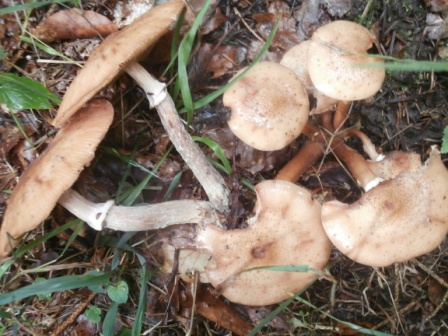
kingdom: Fungi
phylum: Basidiomycota
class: Agaricomycetes
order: Agaricales
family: Physalacriaceae
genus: Armillaria
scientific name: Armillaria ostoyae
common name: mørk honningsvamp
